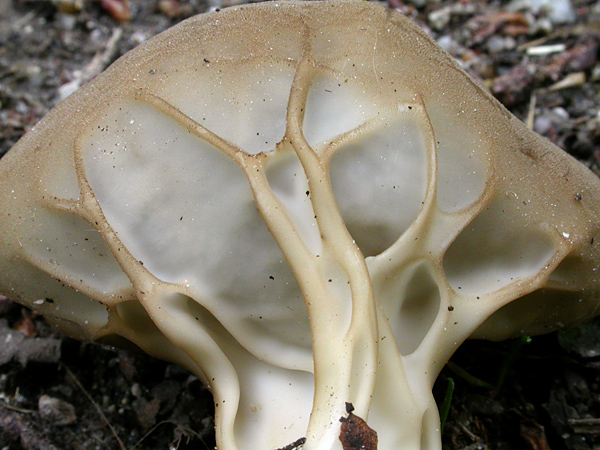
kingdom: Fungi
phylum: Ascomycota
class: Pezizomycetes
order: Pezizales
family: Helvellaceae
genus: Helvella
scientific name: Helvella acetabulum
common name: pokal-foldhat
